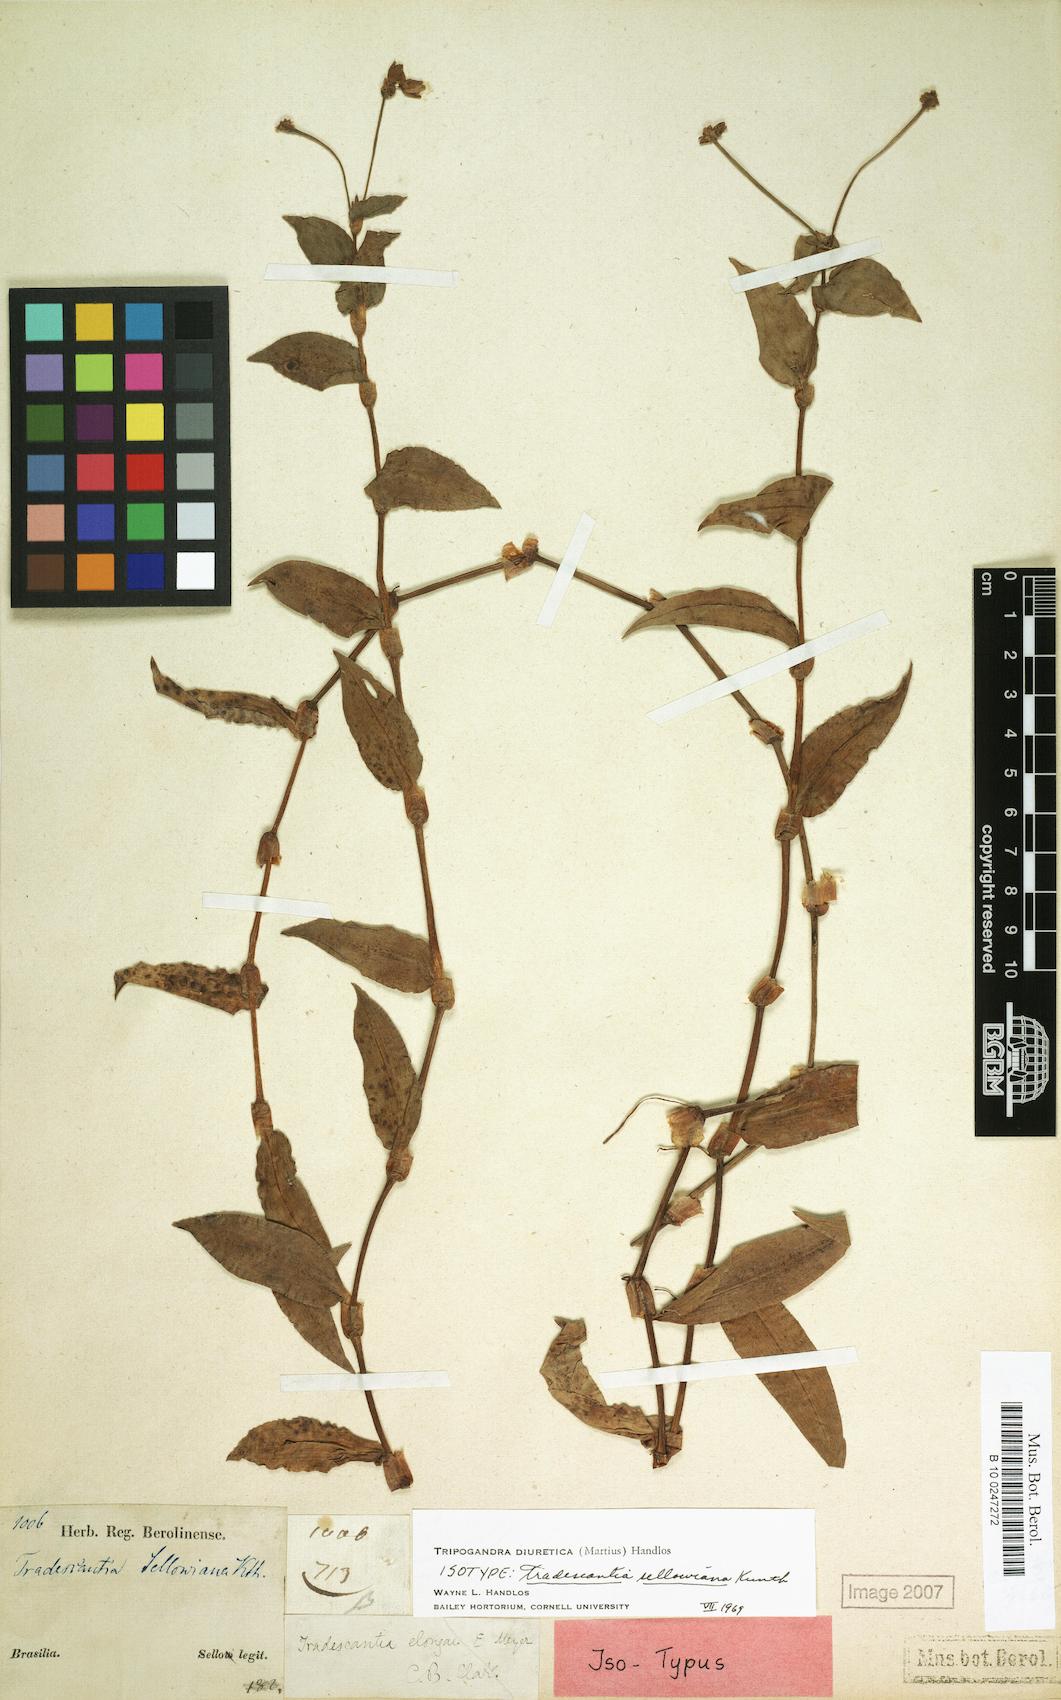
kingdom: Plantae
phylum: Tracheophyta
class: Liliopsida
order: Commelinales
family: Commelinaceae
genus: Callisia
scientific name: Callisia diuretica
